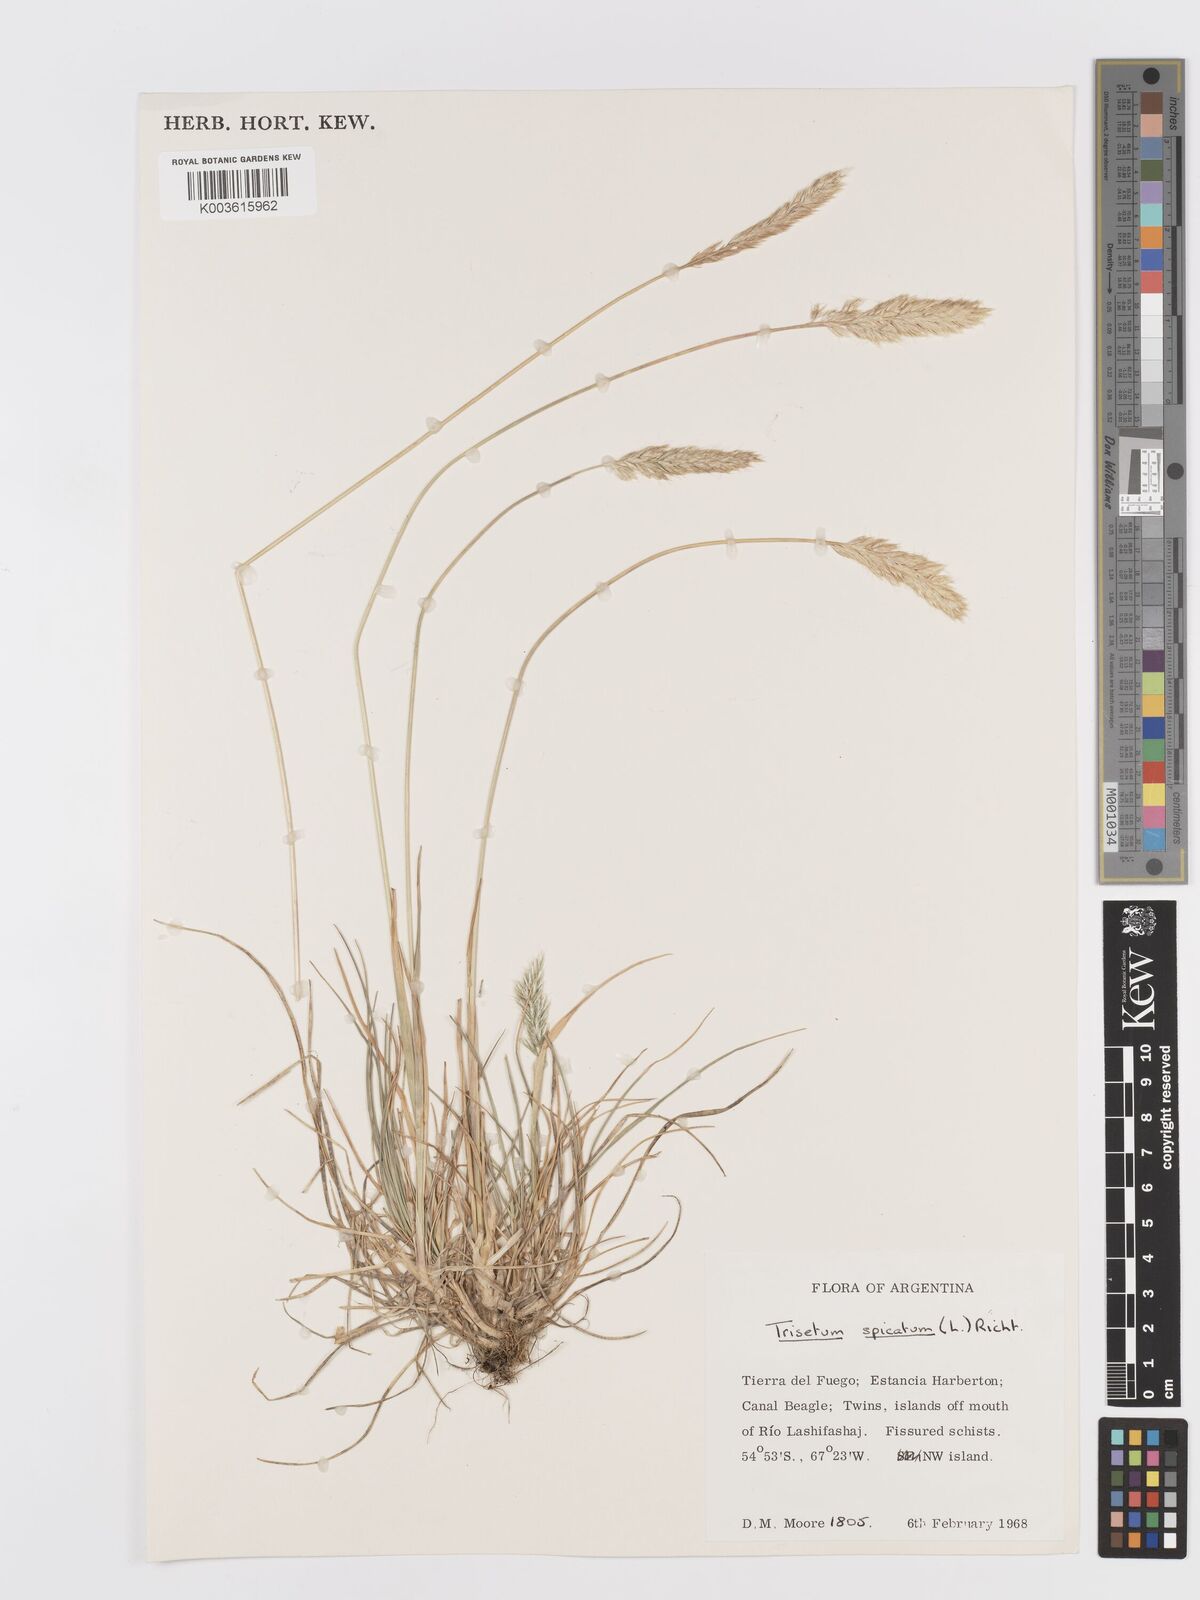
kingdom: Plantae
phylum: Tracheophyta
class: Liliopsida
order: Poales
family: Poaceae
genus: Koeleria
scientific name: Koeleria spicata
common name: Mountain trisetum
